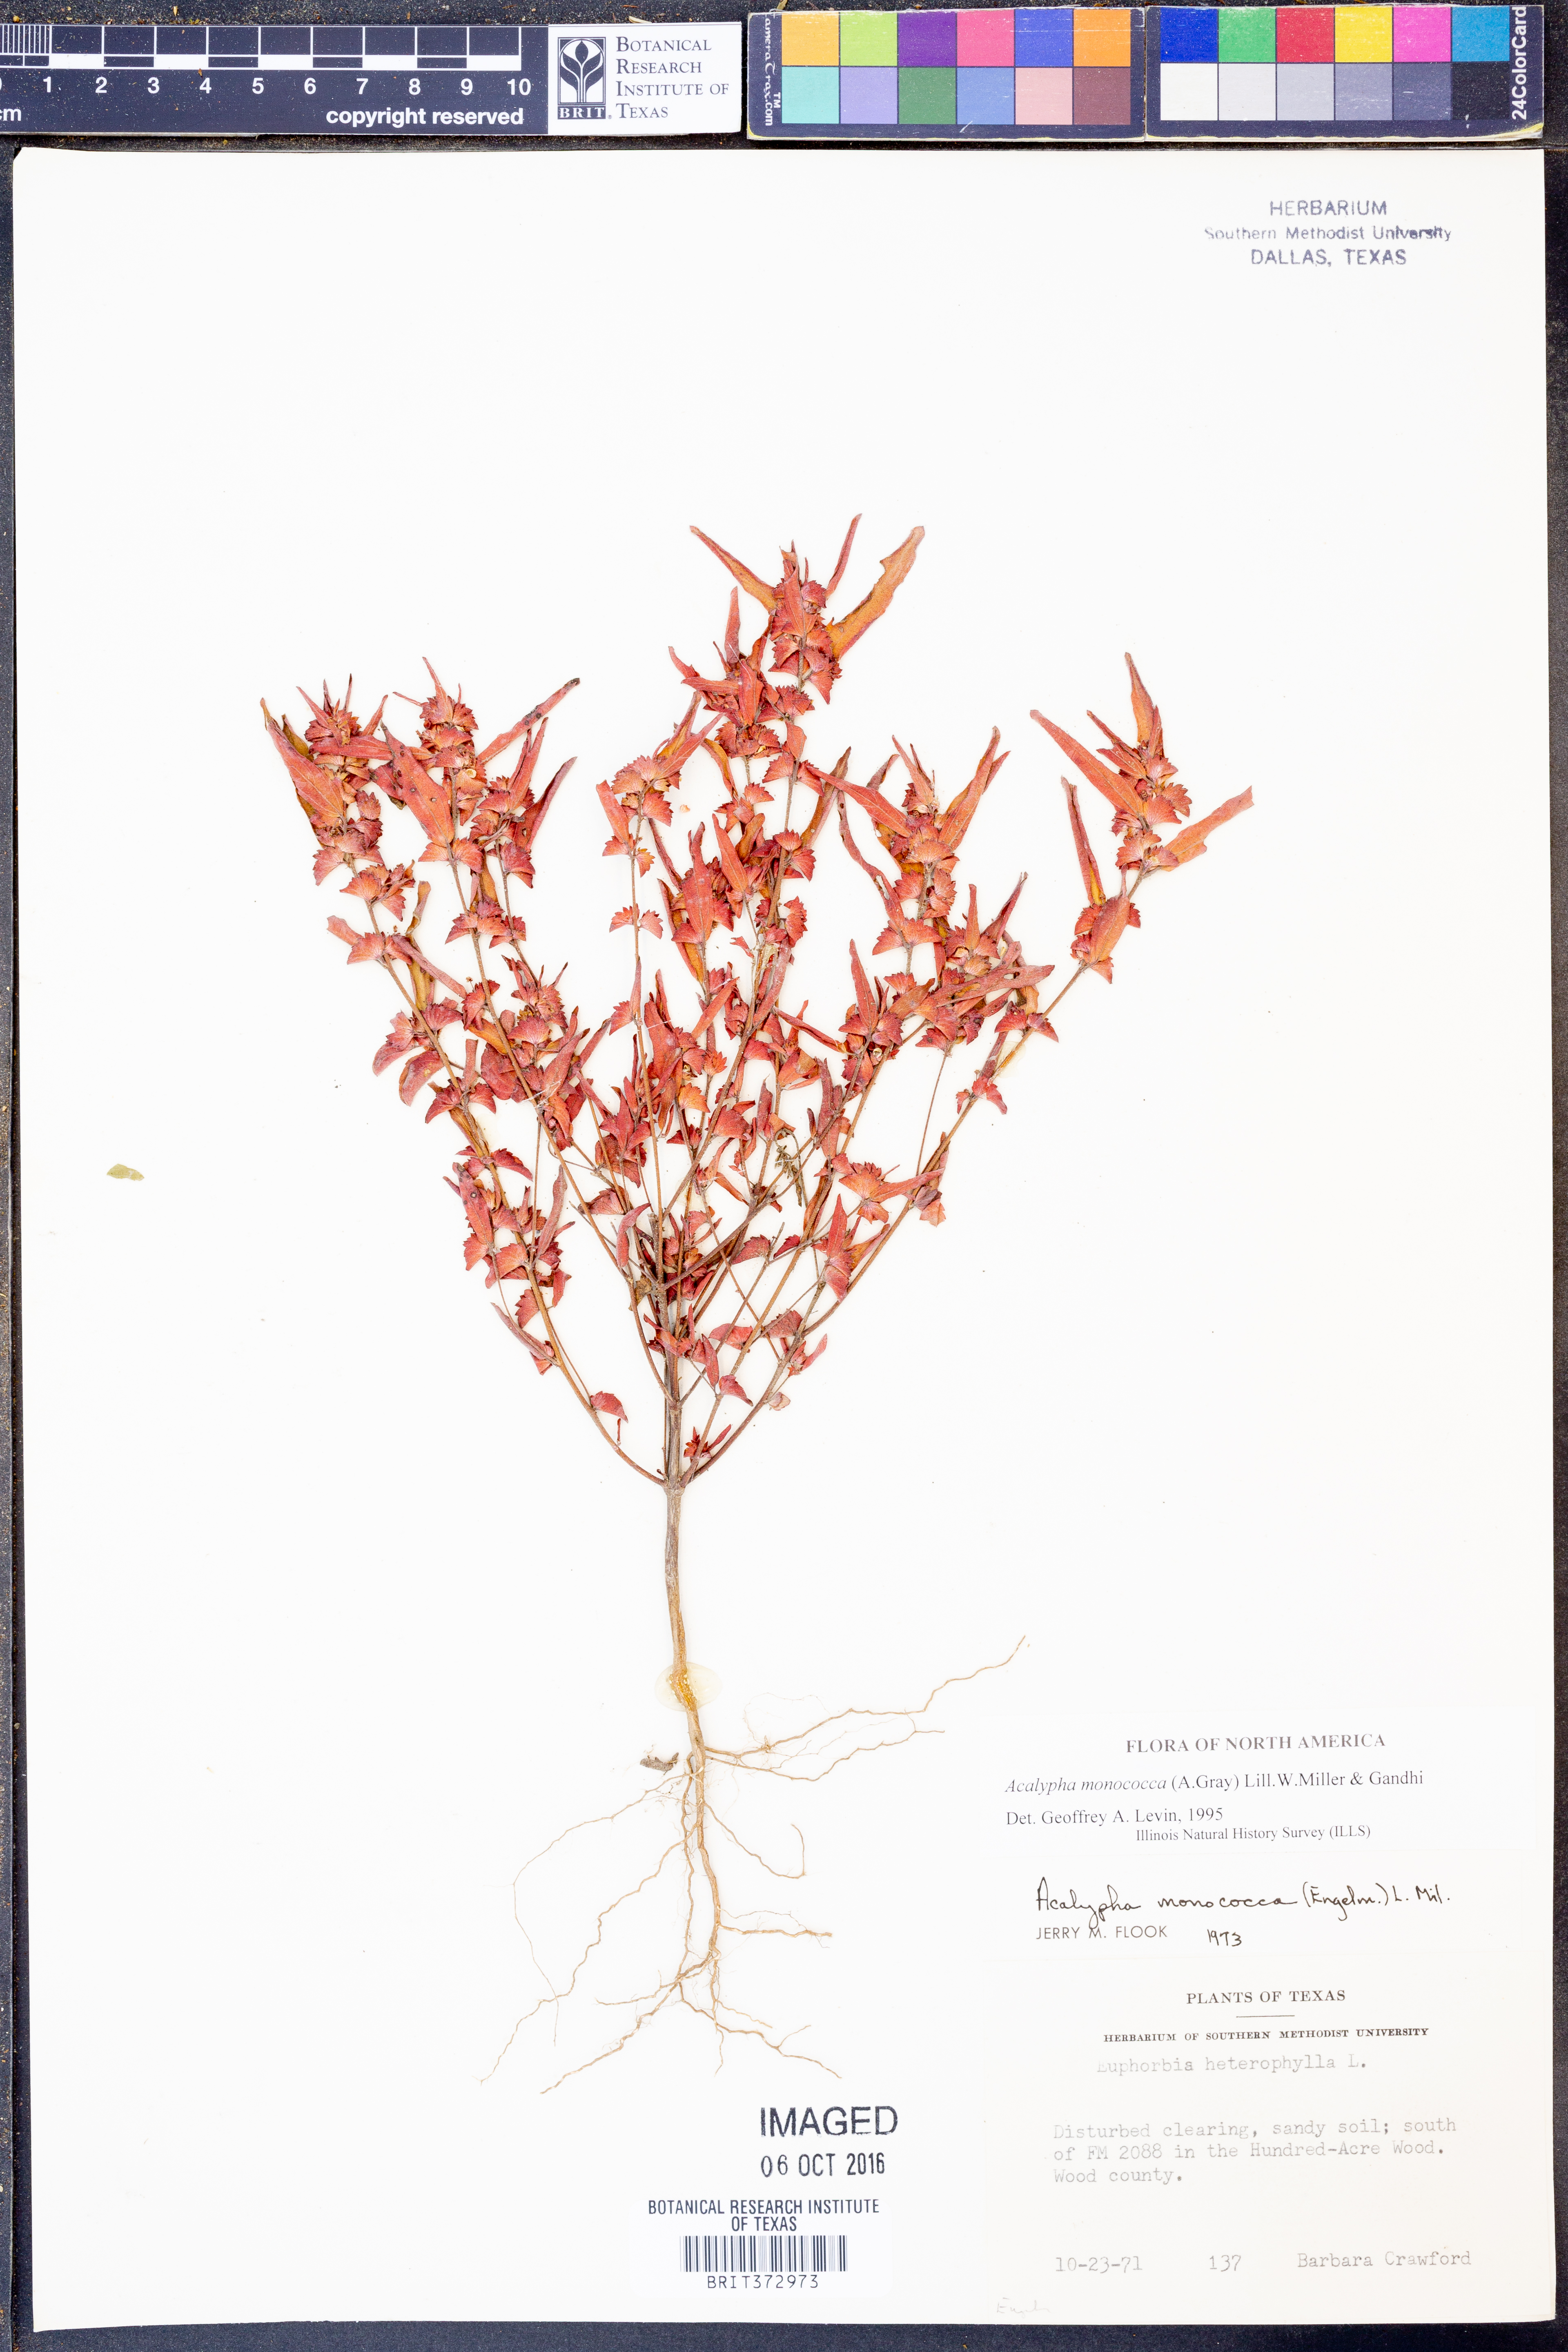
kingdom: Plantae
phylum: Tracheophyta
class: Magnoliopsida
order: Malpighiales
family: Euphorbiaceae
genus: Acalypha
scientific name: Acalypha monococca
